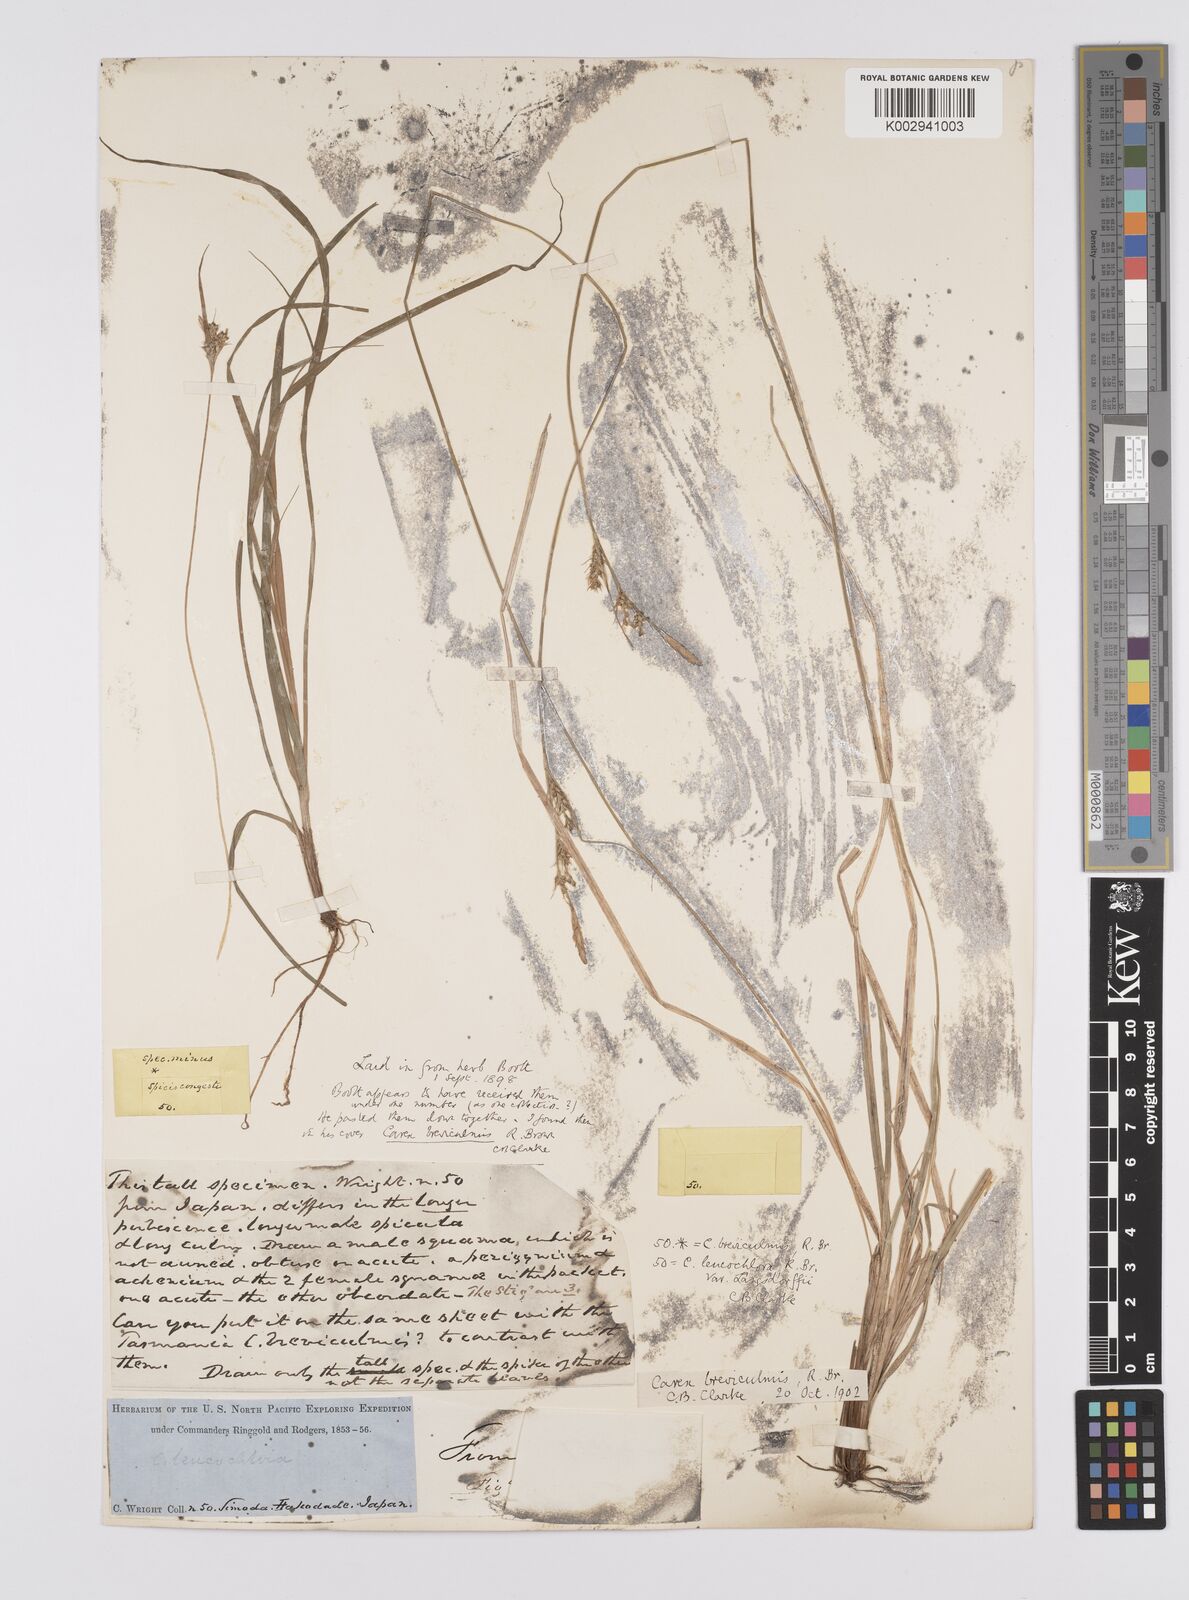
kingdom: Plantae
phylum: Tracheophyta
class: Liliopsida
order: Poales
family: Cyperaceae
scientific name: Cyperaceae
